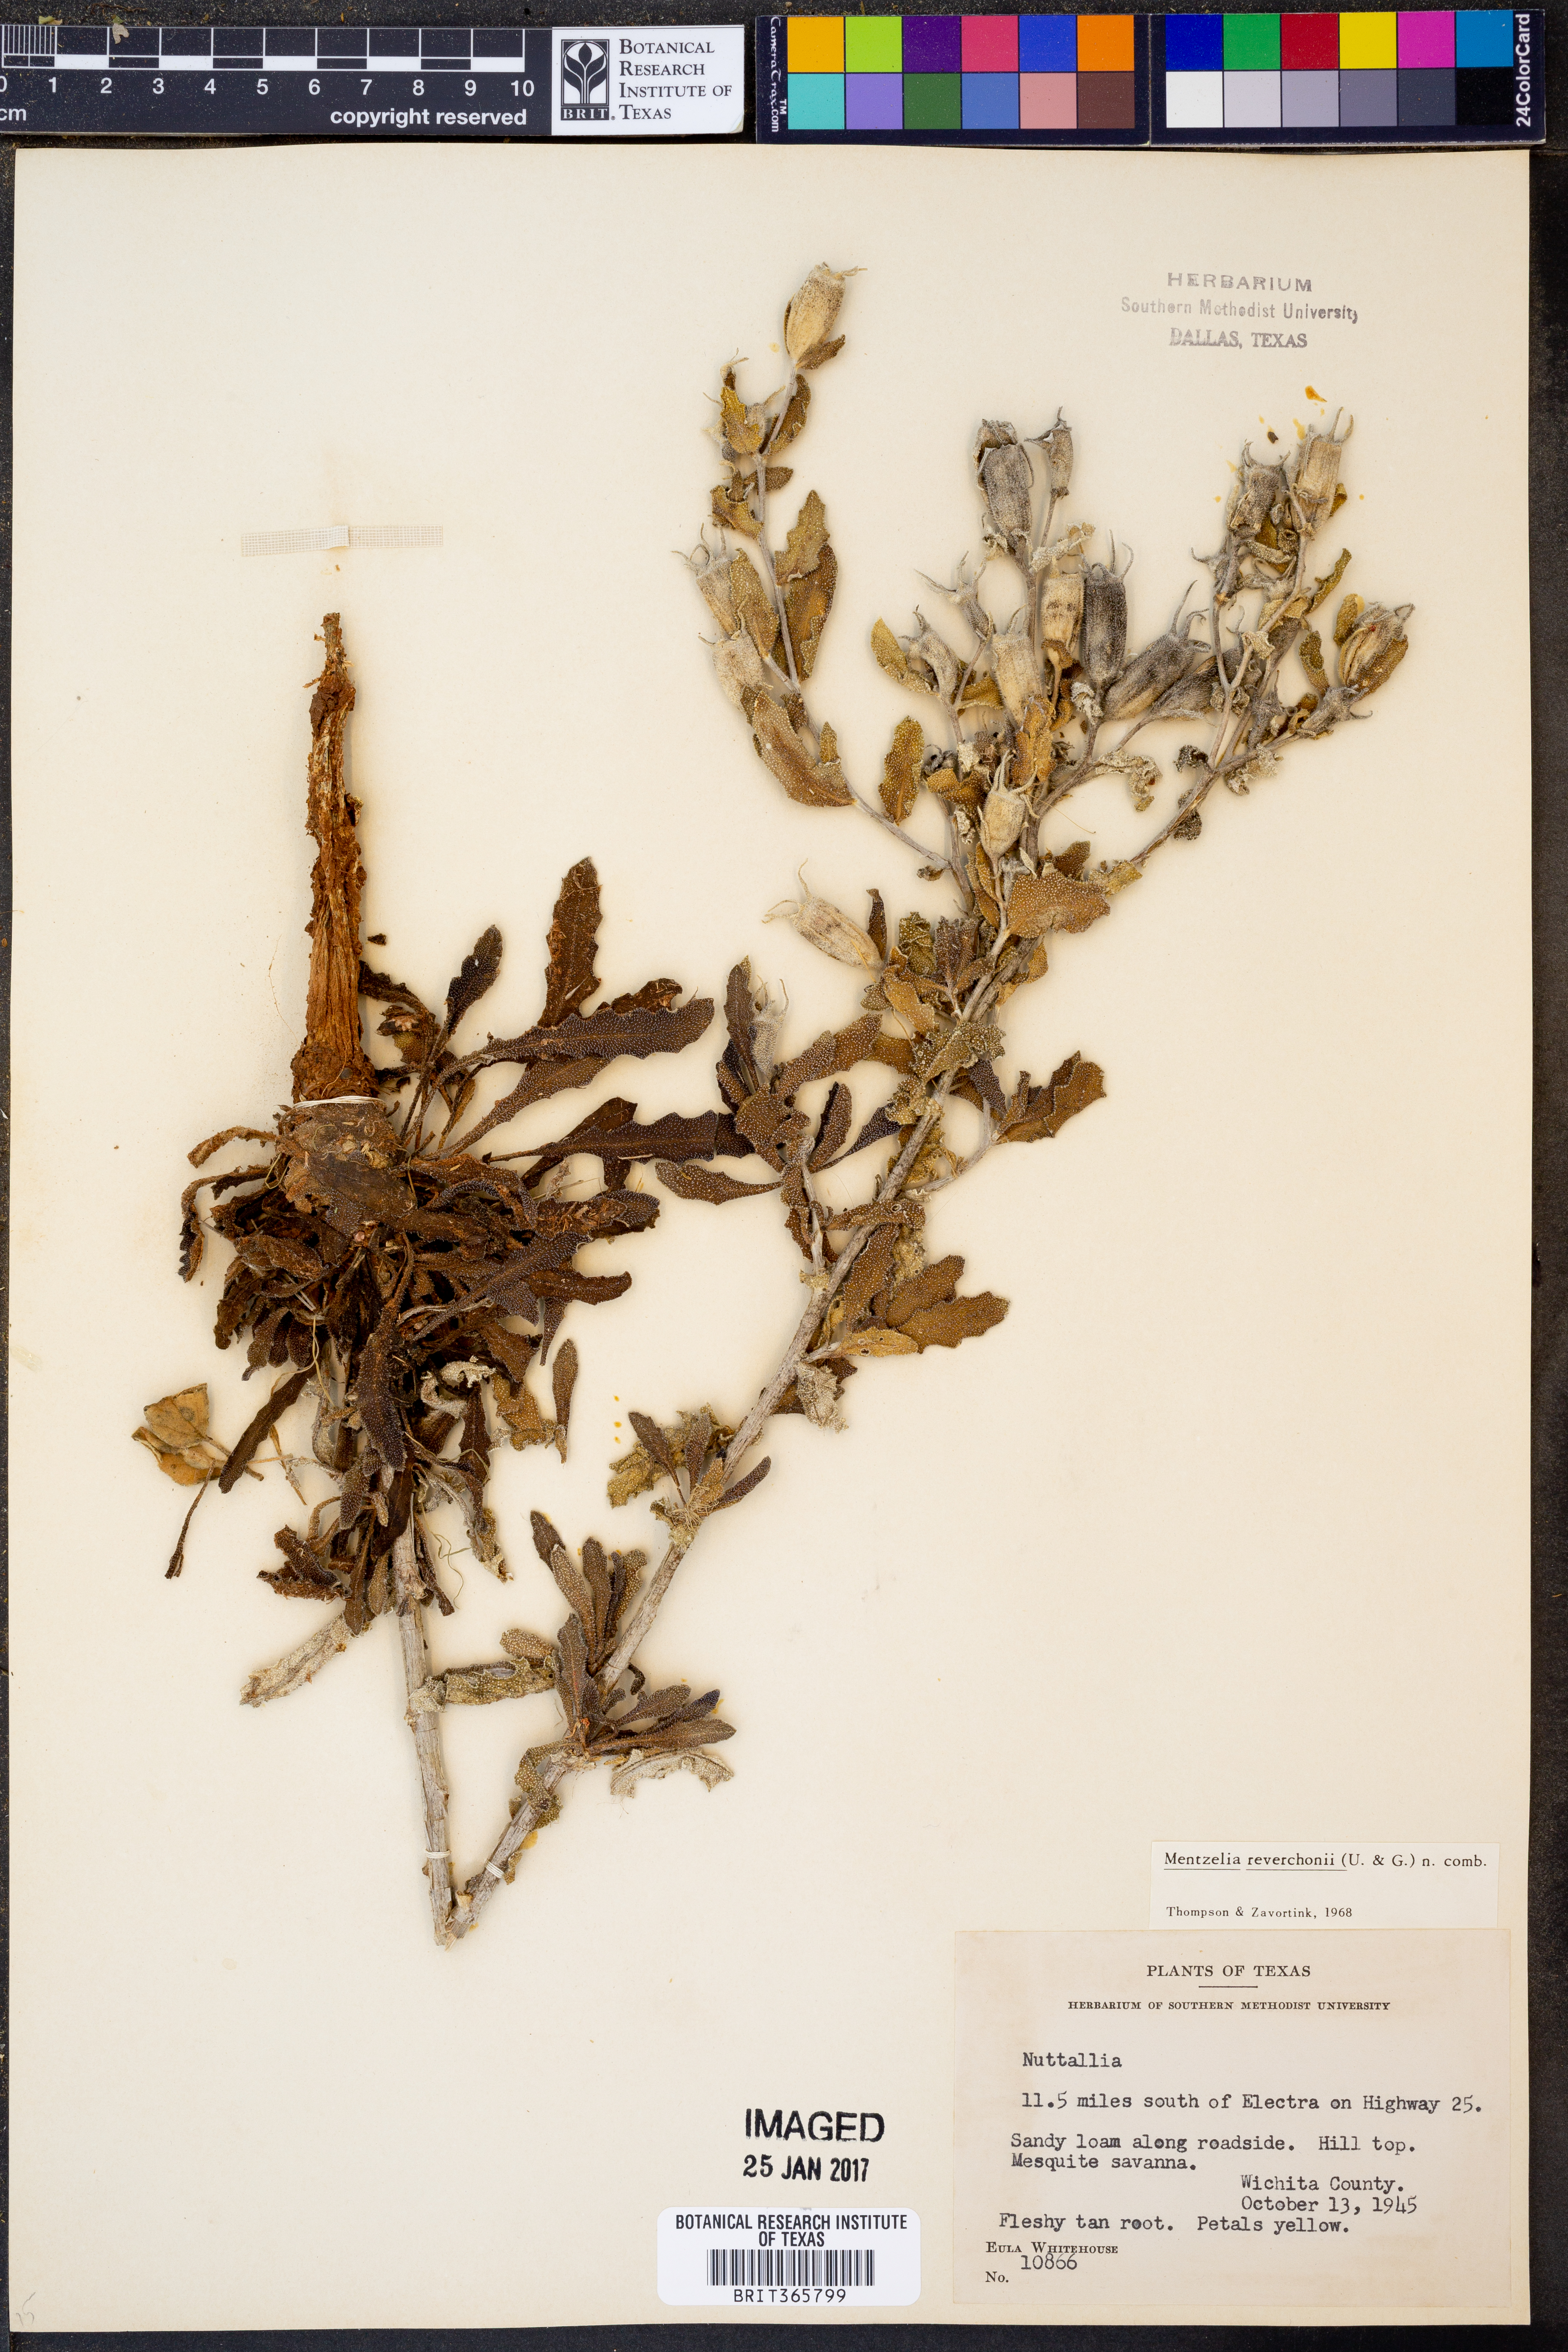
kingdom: Plantae
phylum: Tracheophyta
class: Magnoliopsida
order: Cornales
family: Loasaceae
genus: Mentzelia
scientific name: Mentzelia reverchonii
